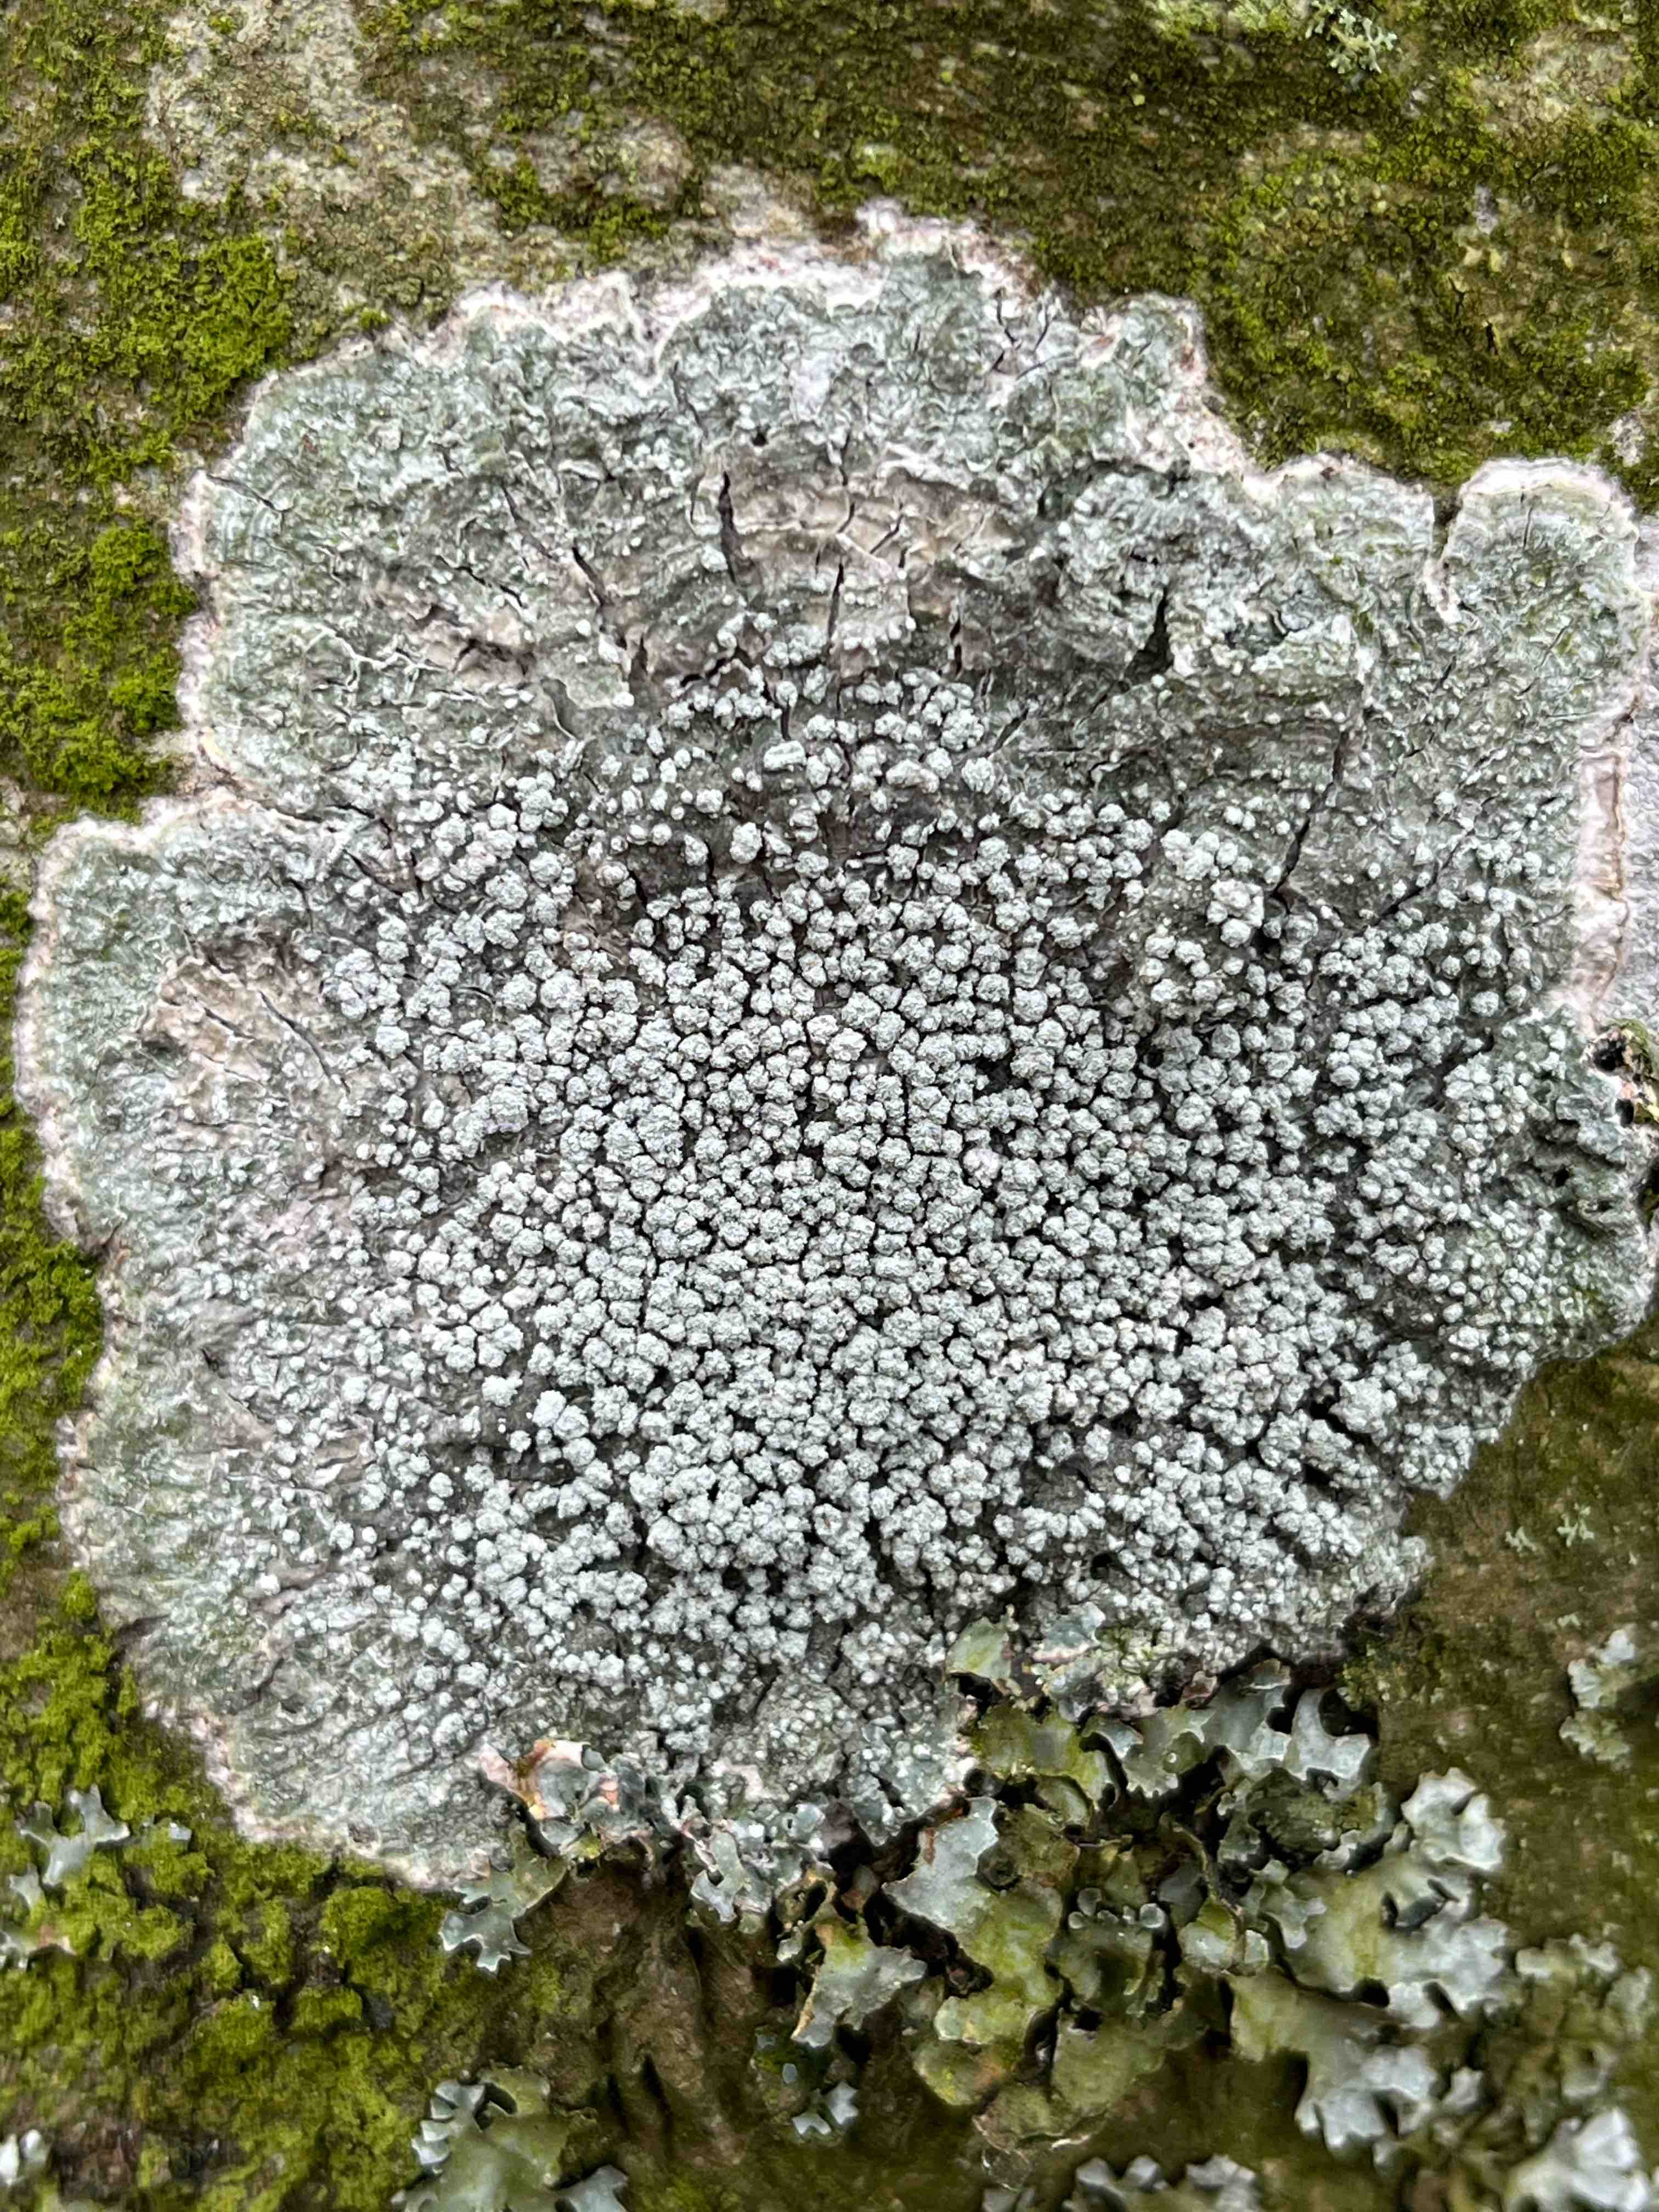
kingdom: Fungi
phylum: Ascomycota
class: Lecanoromycetes
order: Pertusariales
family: Pertusariaceae
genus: Lepra
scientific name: Lepra albescens
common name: hvidmelet prikvortelav
